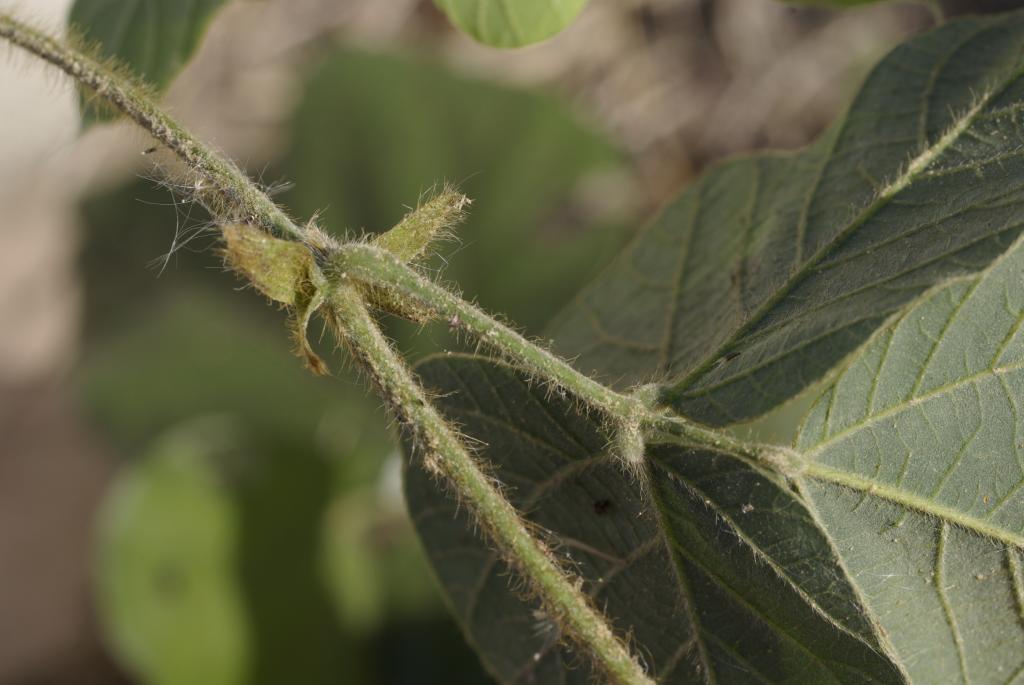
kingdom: Plantae
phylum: Tracheophyta
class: Magnoliopsida
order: Fabales
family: Fabaceae
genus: Pueraria
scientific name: Pueraria montana
